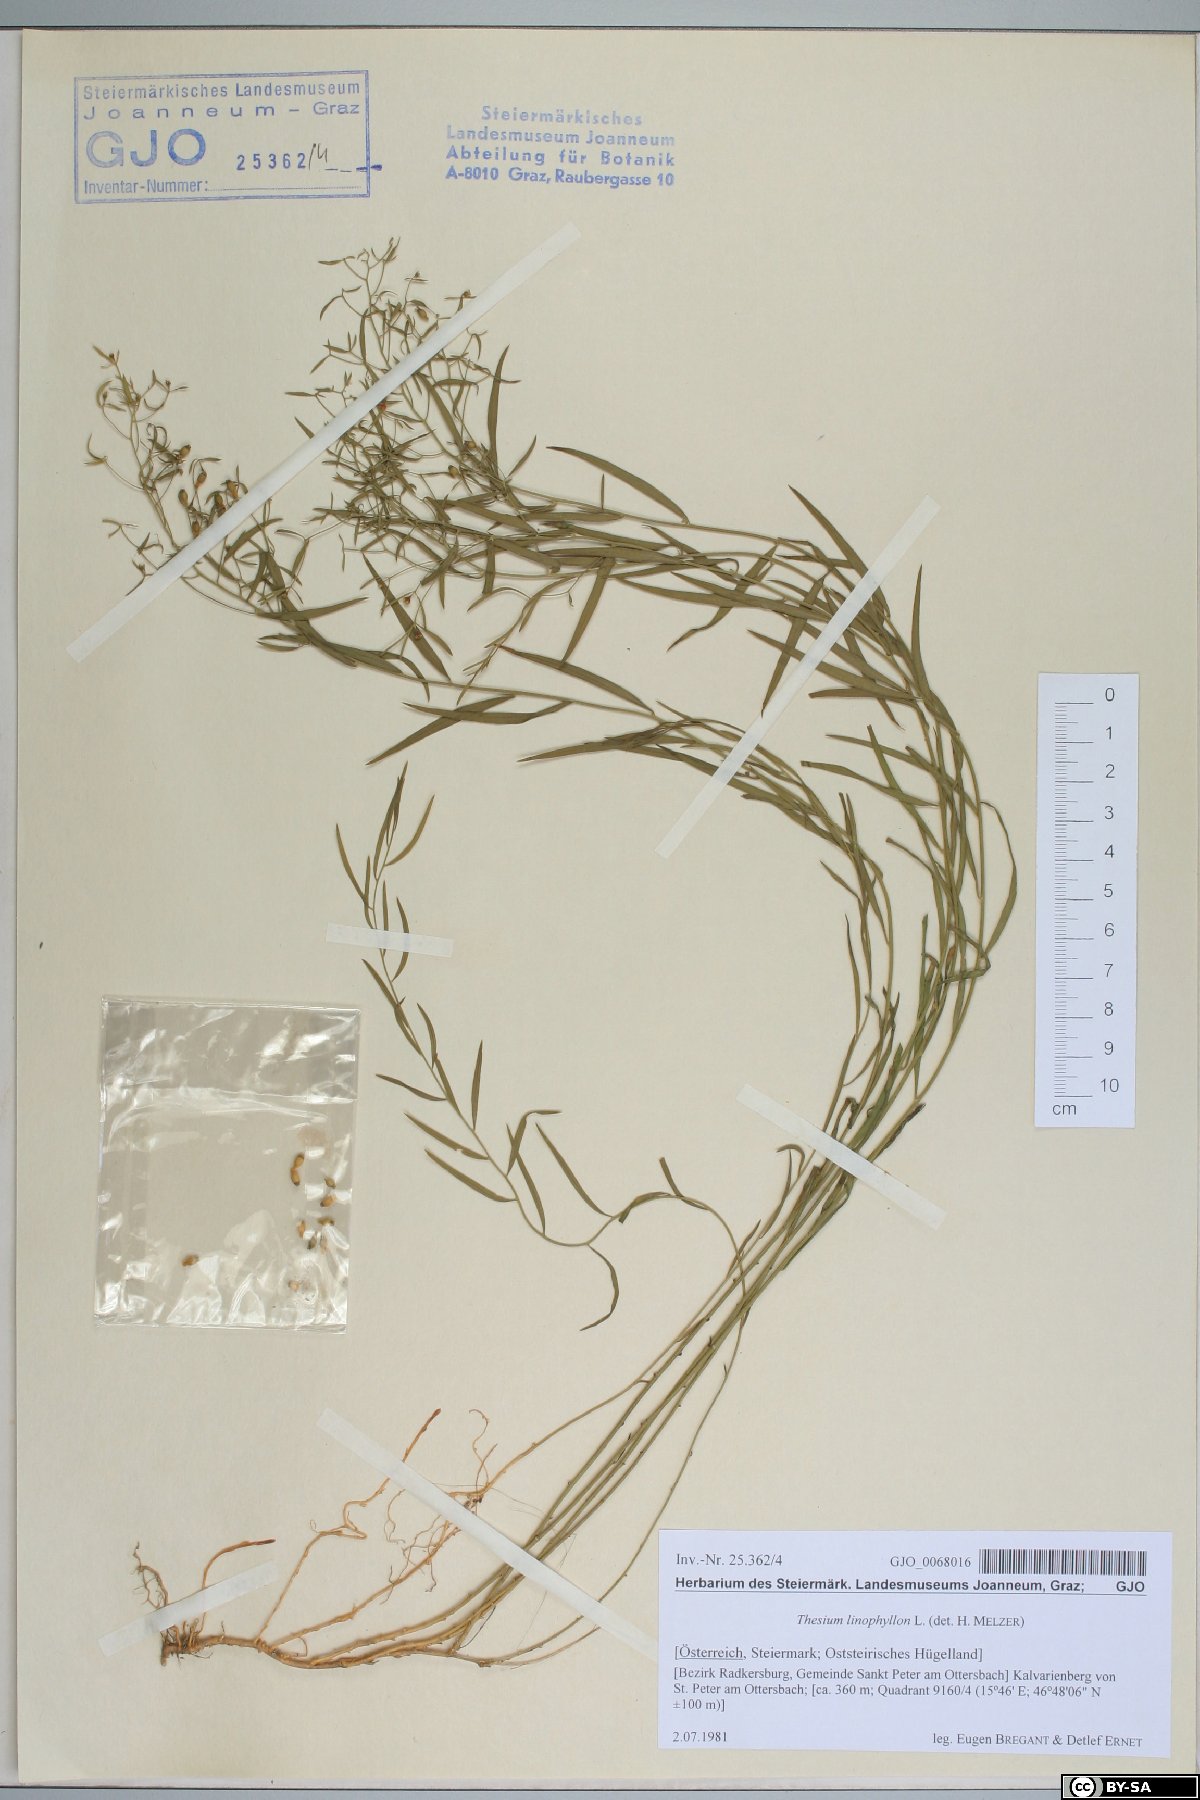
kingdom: Plantae
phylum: Tracheophyta
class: Magnoliopsida
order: Santalales
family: Thesiaceae
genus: Thesium
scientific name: Thesium linophyllon
